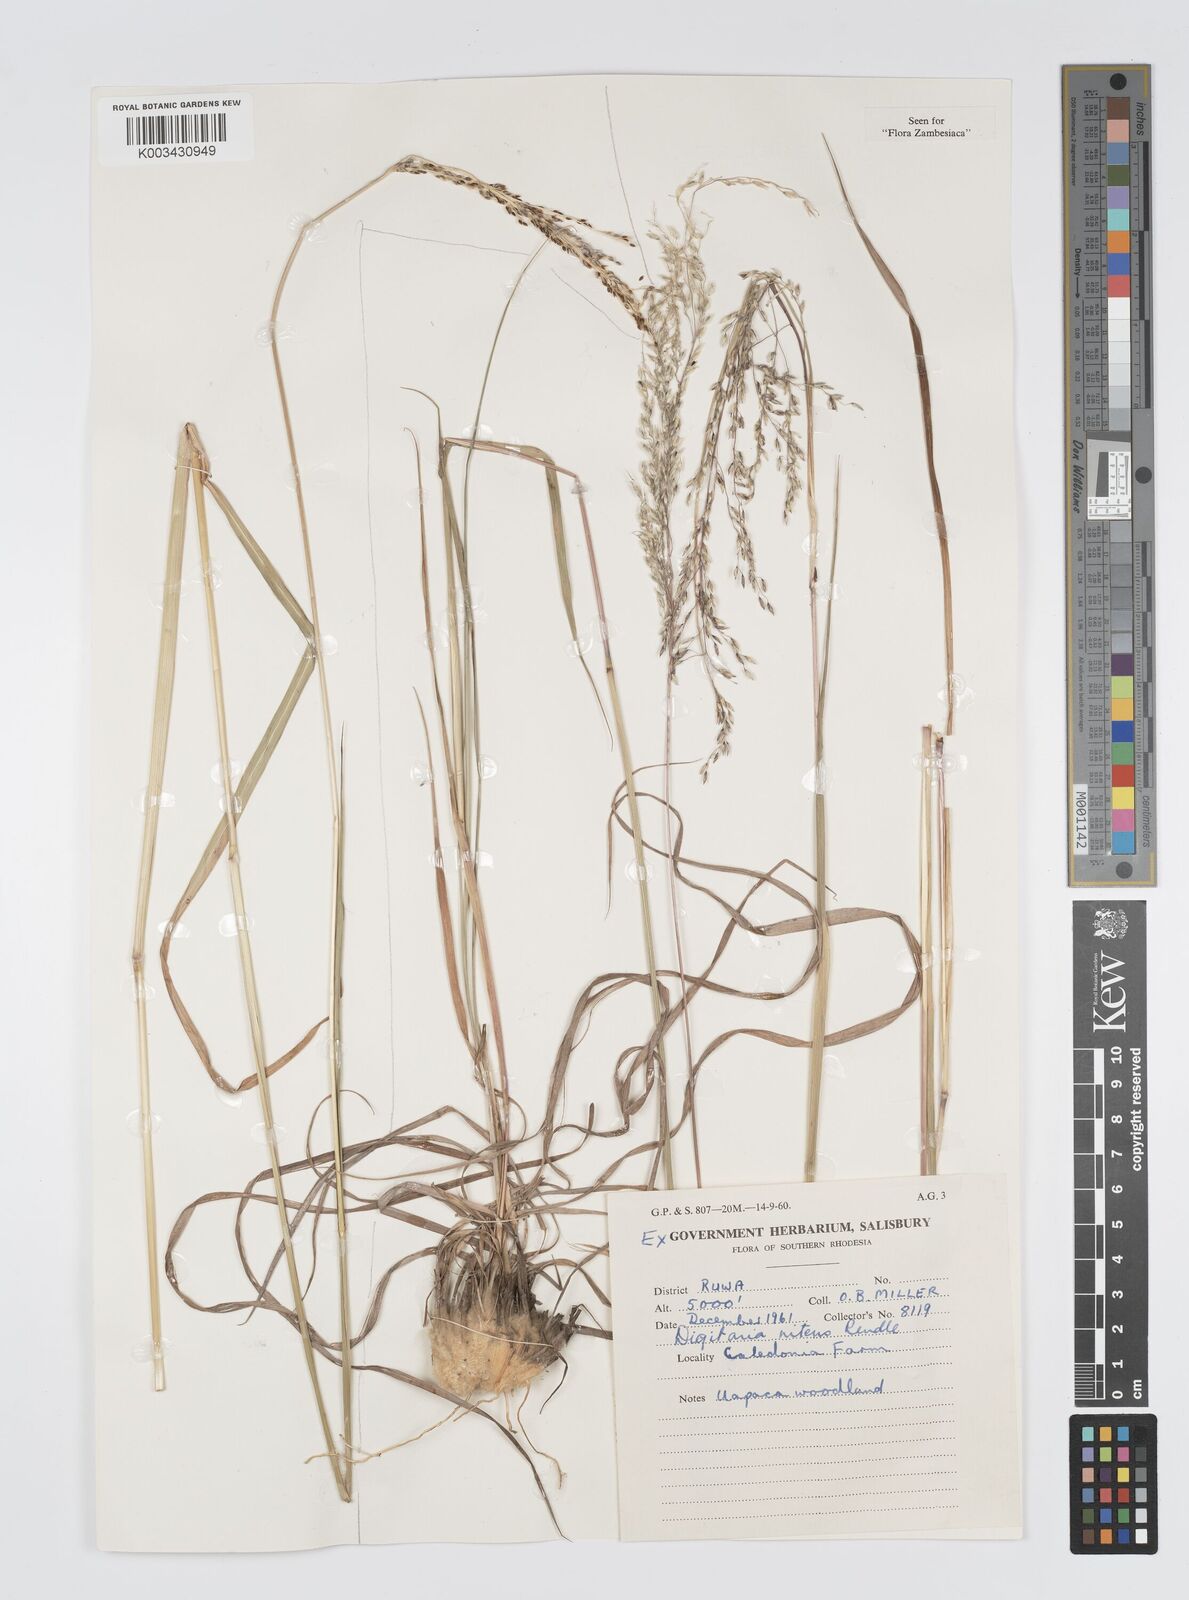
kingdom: Plantae
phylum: Tracheophyta
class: Liliopsida
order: Poales
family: Poaceae
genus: Digitaria
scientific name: Digitaria flaccida
